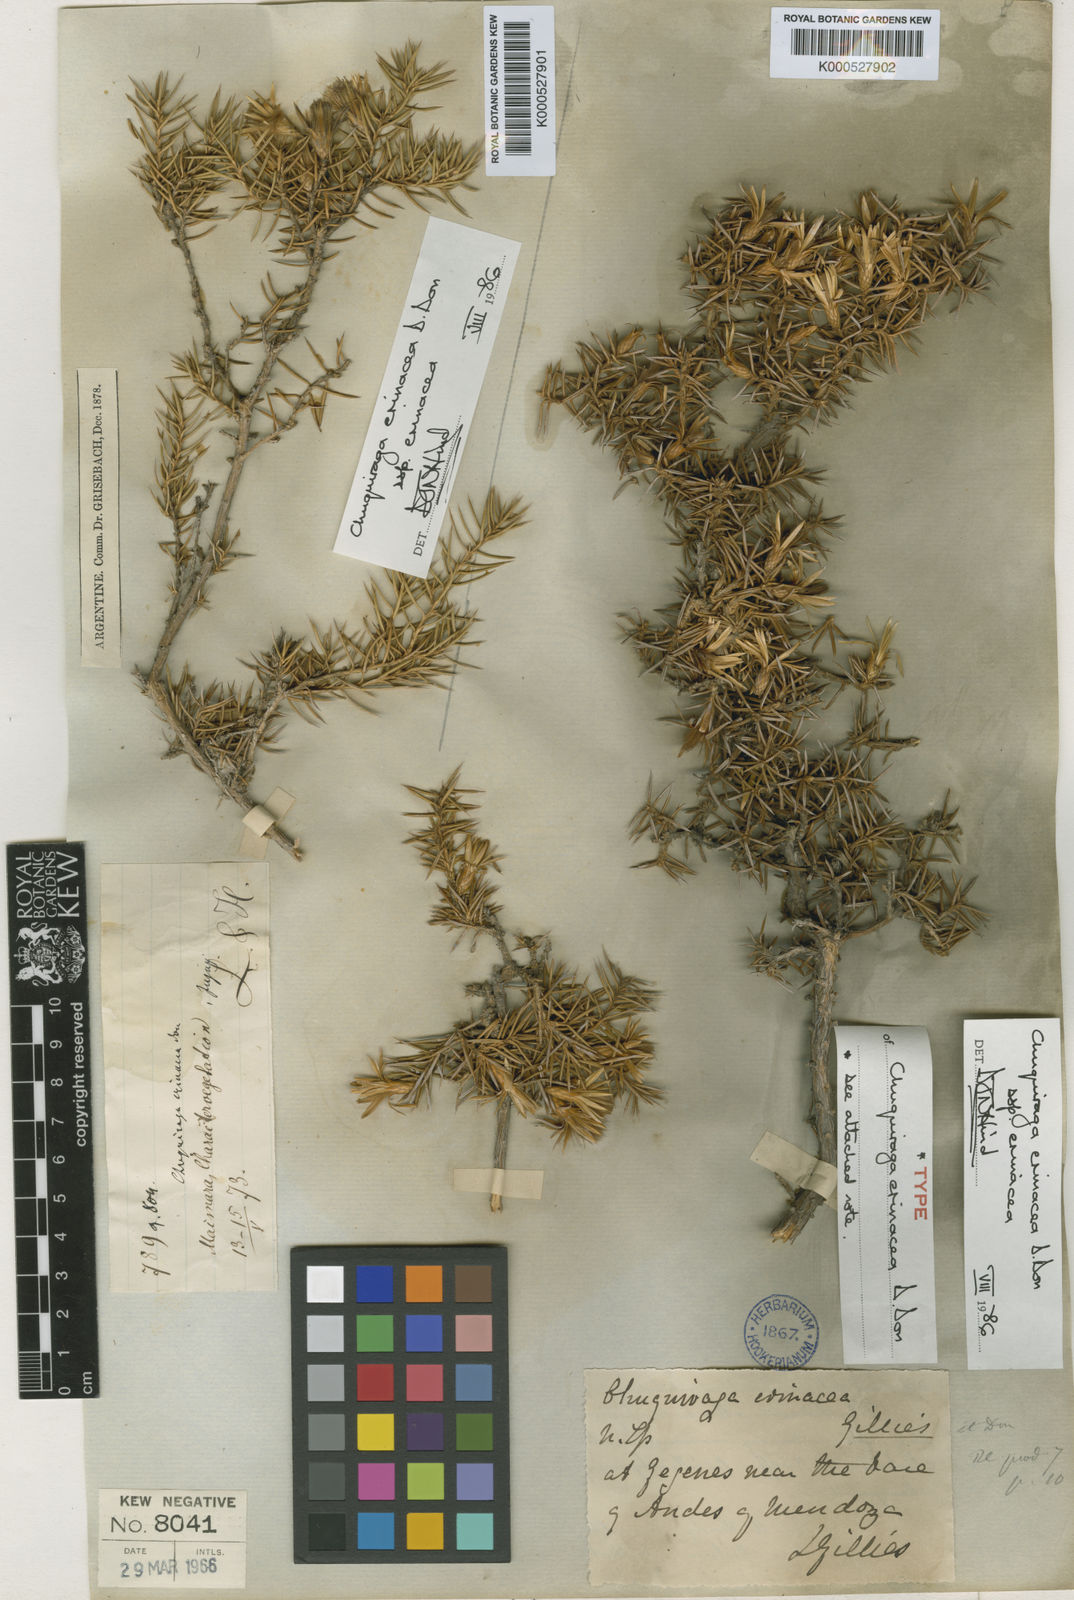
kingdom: Plantae
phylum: Tracheophyta
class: Magnoliopsida
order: Asterales
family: Asteraceae
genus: Chuquiraga
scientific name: Chuquiraga erinacea
